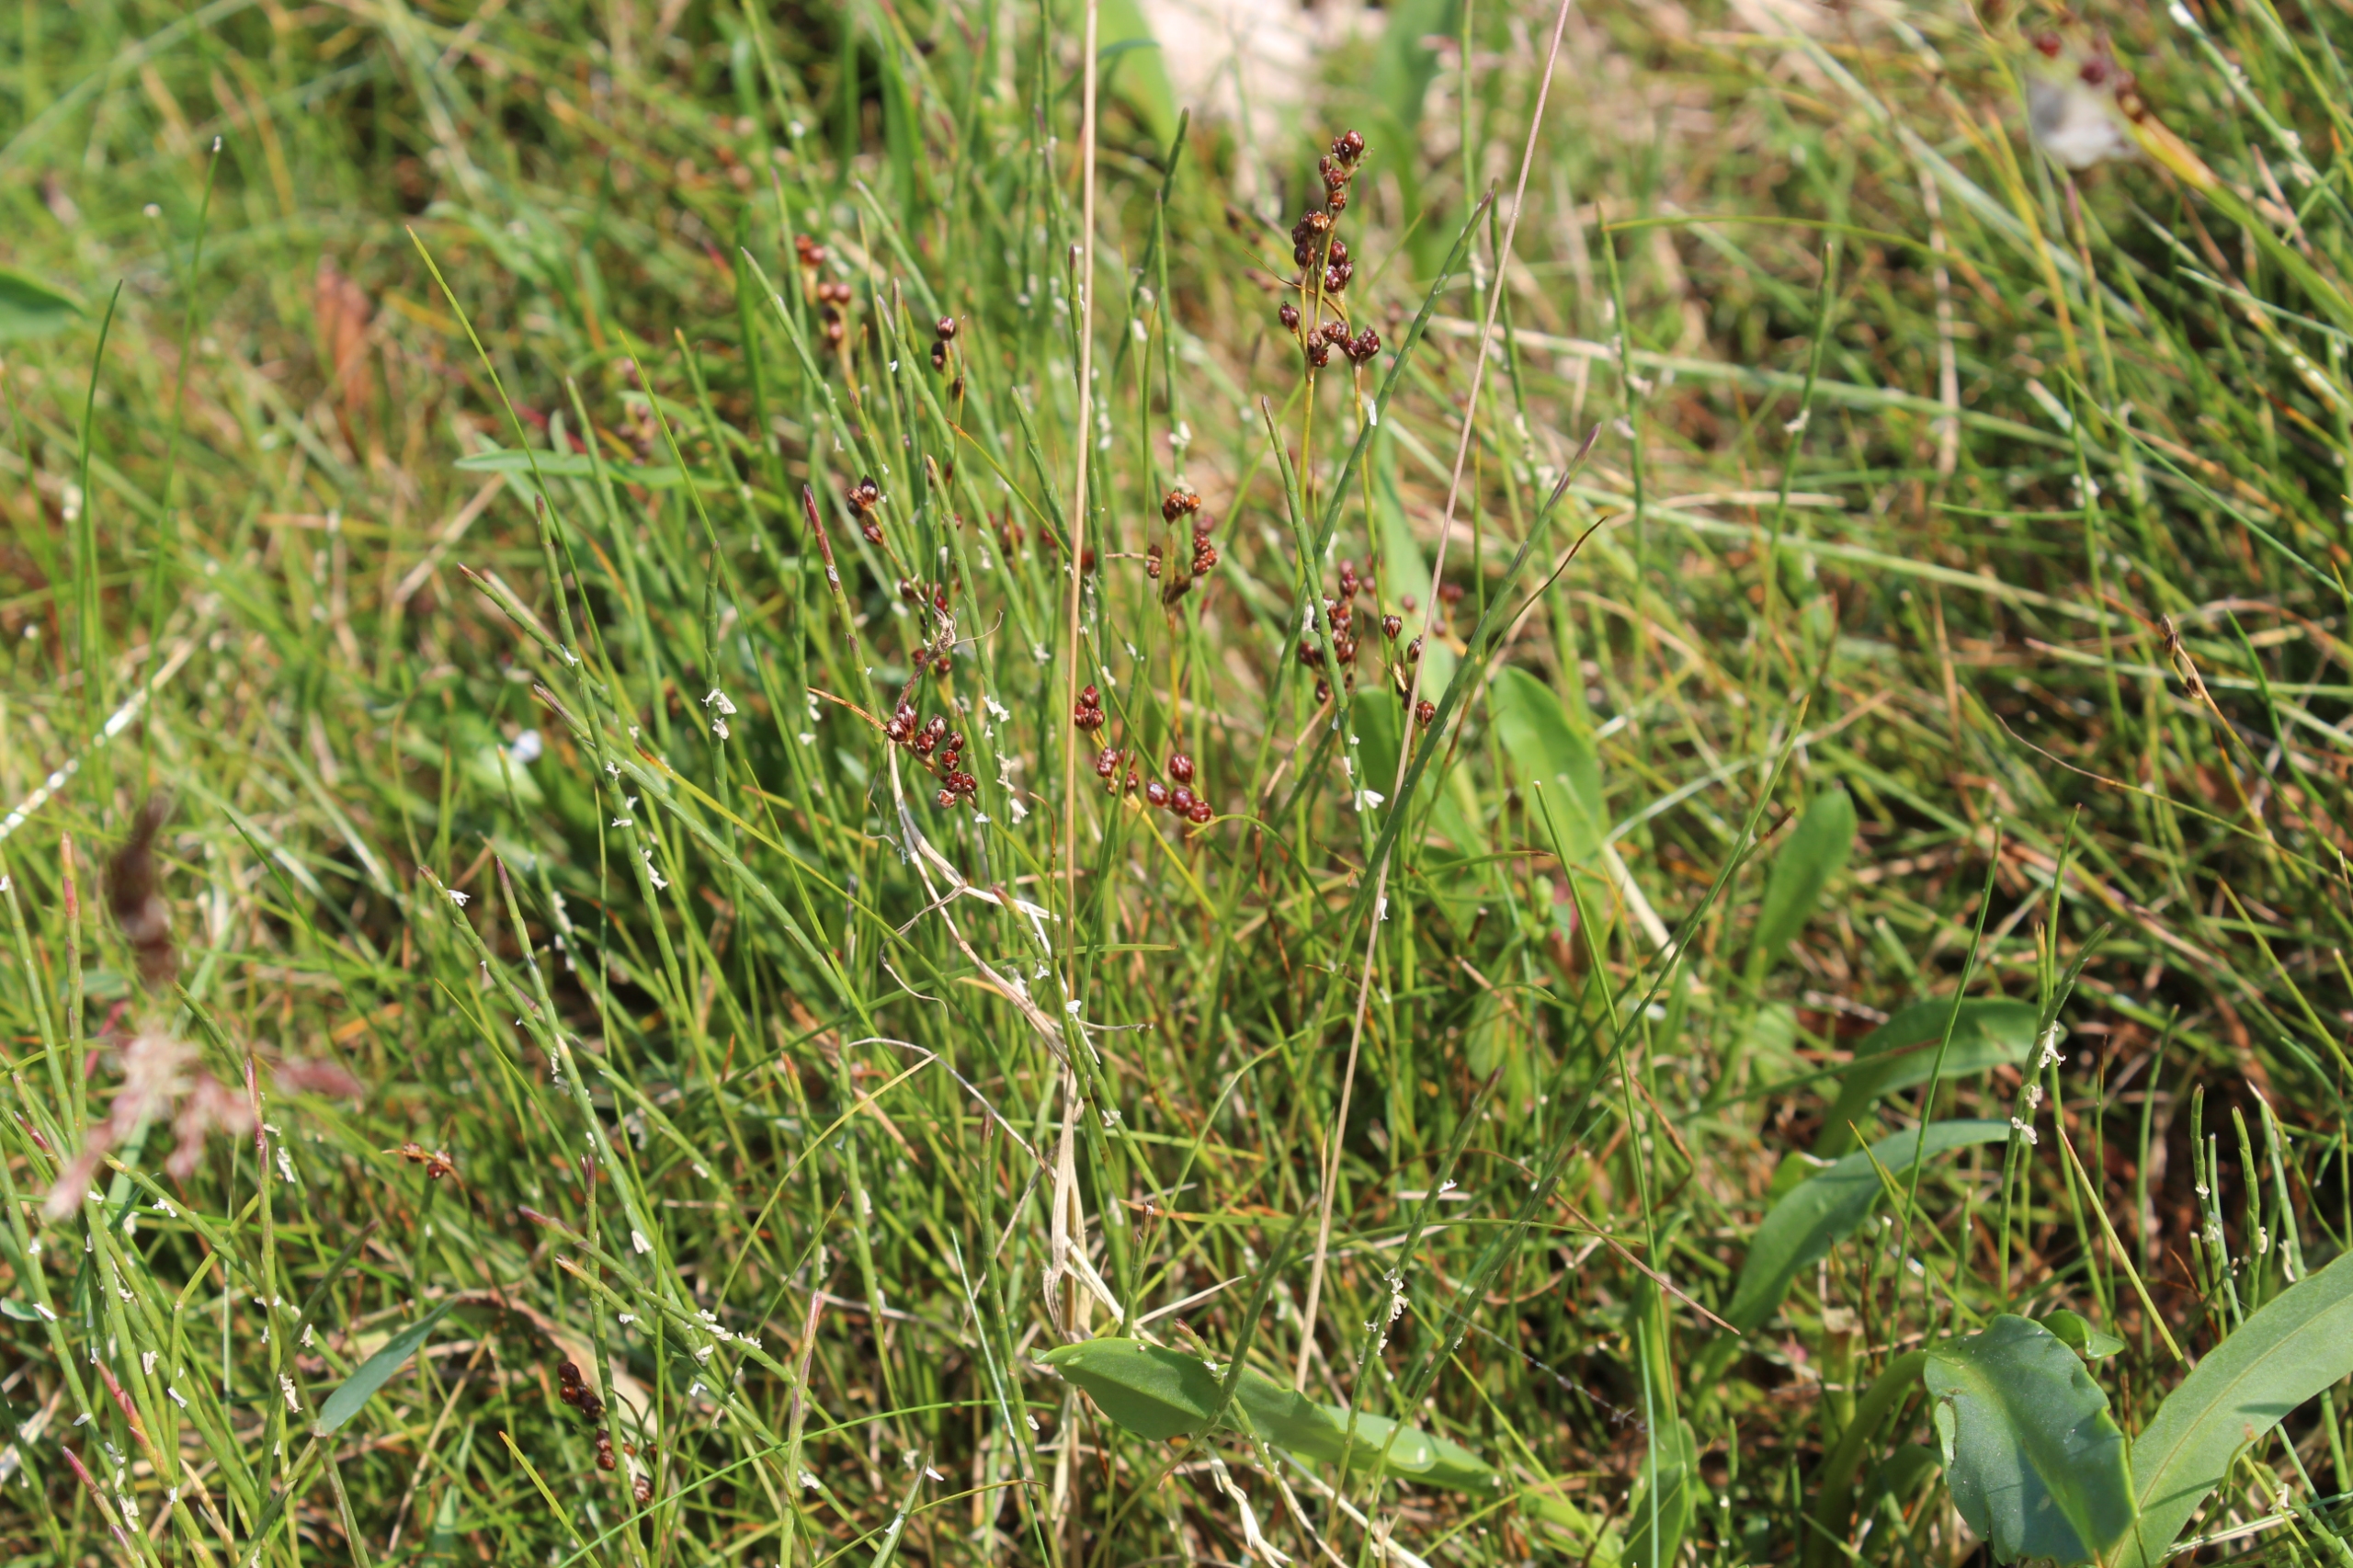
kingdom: Plantae
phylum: Tracheophyta
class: Liliopsida
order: Poales
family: Poaceae
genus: Parapholis
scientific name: Parapholis strigosa
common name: Spidshale
